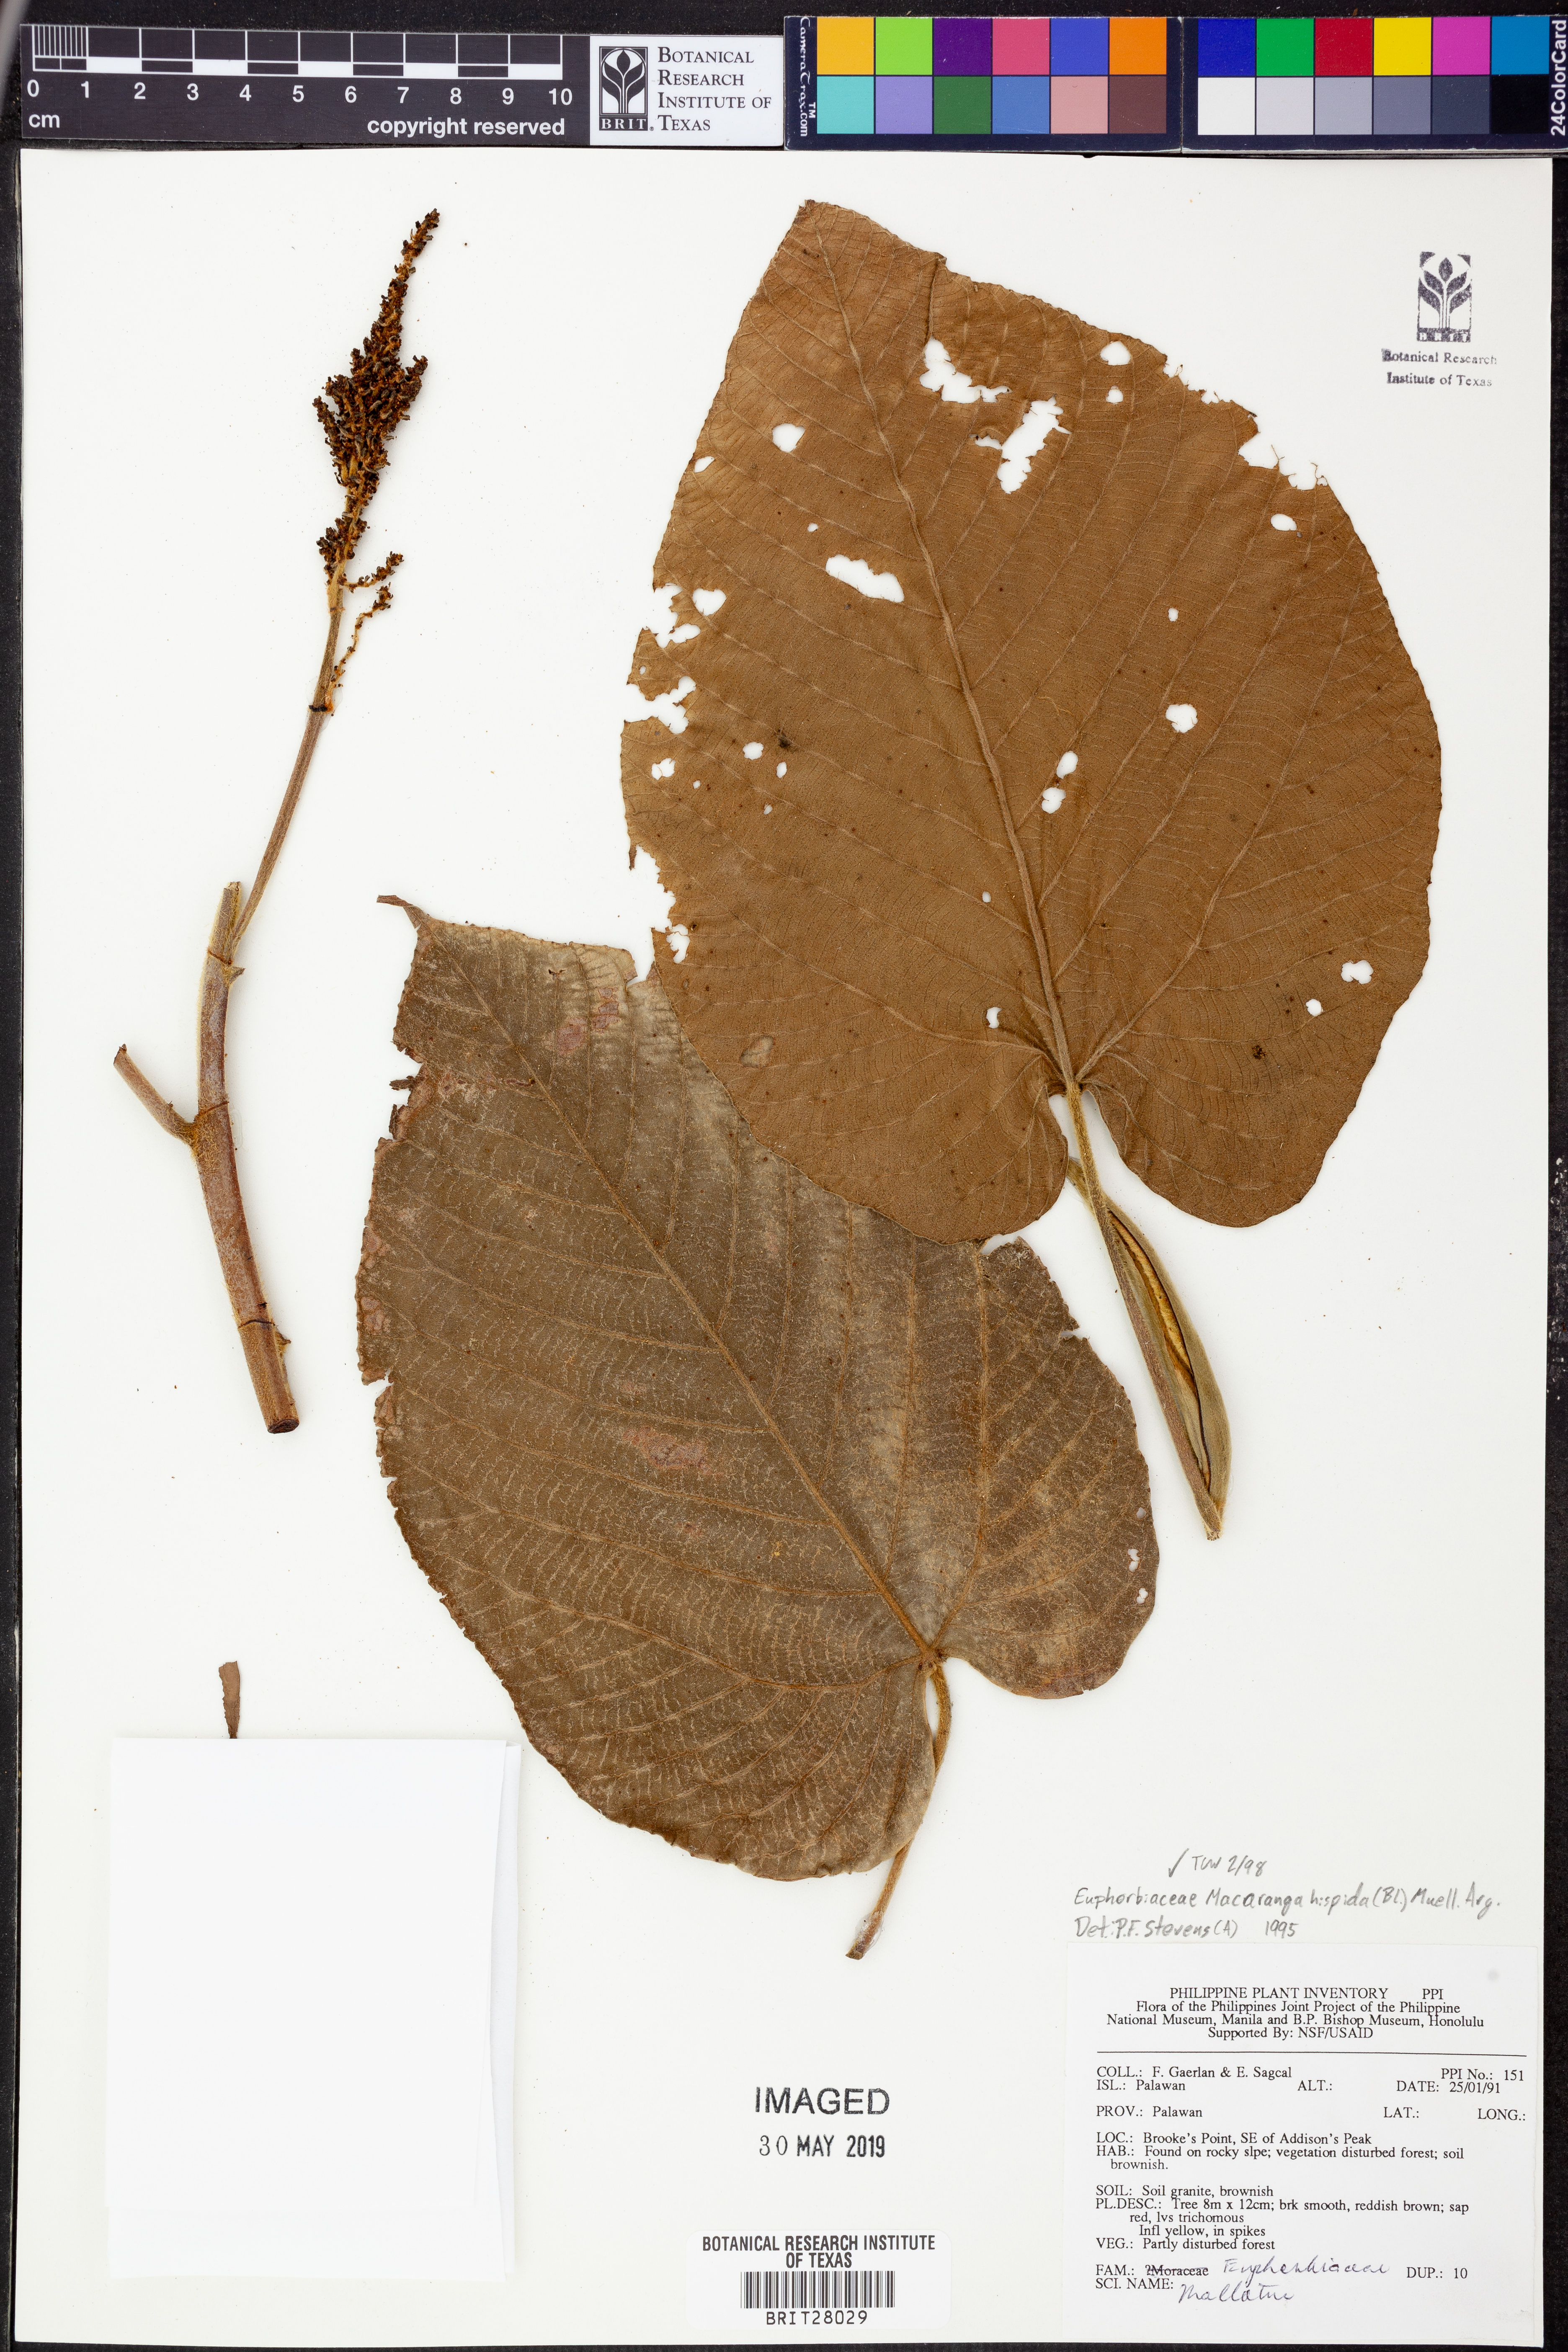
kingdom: Plantae
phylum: Tracheophyta
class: Magnoliopsida
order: Malpighiales
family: Euphorbiaceae
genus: Macaranga
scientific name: Macaranga hispida
